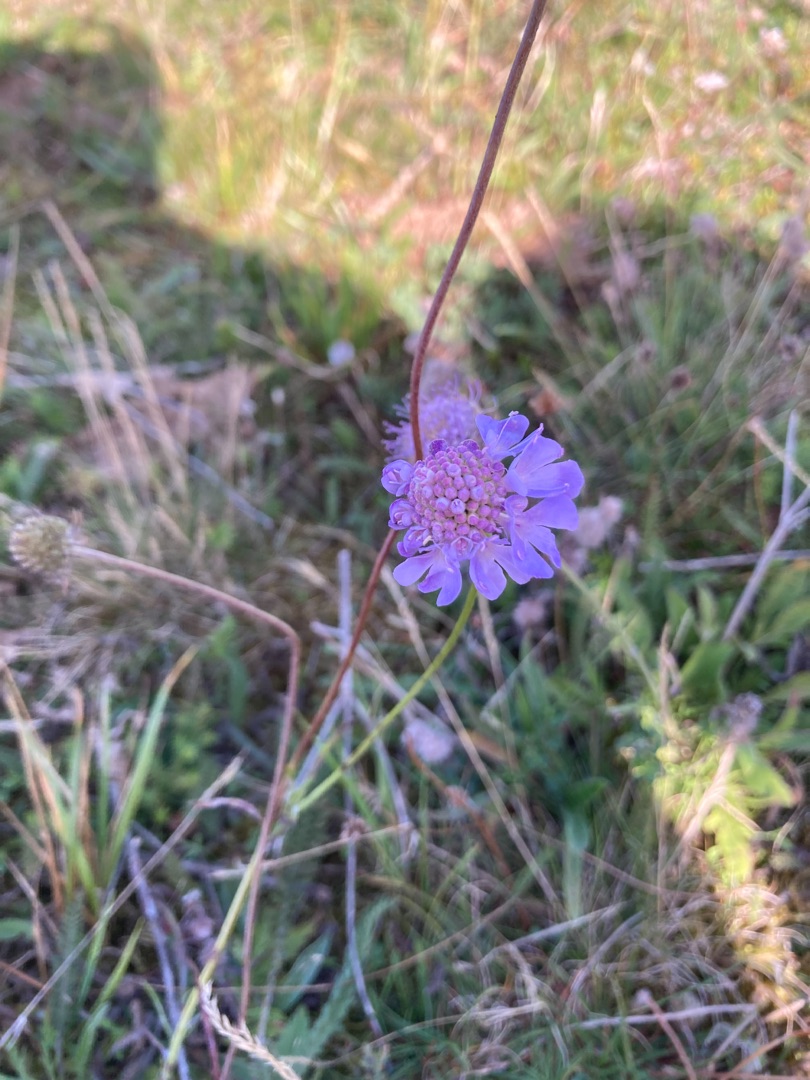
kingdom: Plantae
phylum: Tracheophyta
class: Magnoliopsida
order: Dipsacales
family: Caprifoliaceae
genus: Scabiosa
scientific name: Scabiosa
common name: Skabioseslægten
